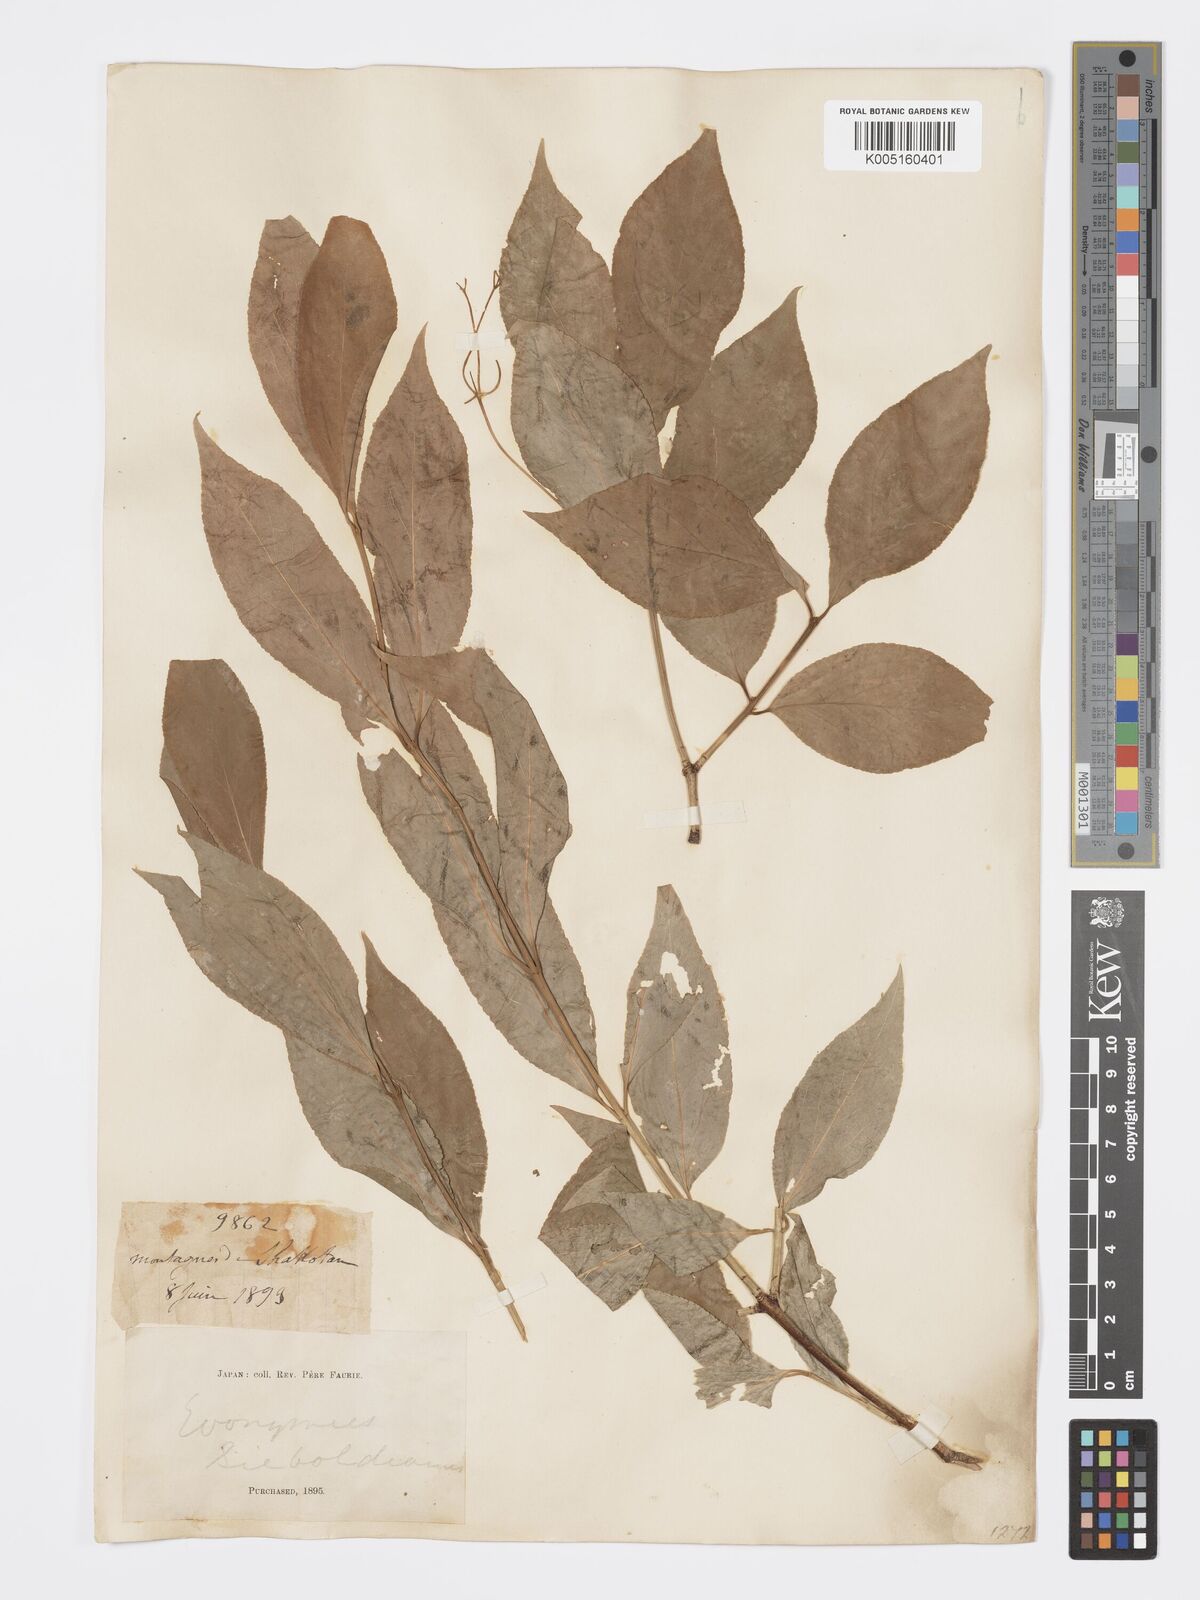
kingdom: Plantae
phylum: Tracheophyta
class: Magnoliopsida
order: Celastrales
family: Celastraceae
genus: Euonymus
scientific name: Euonymus
